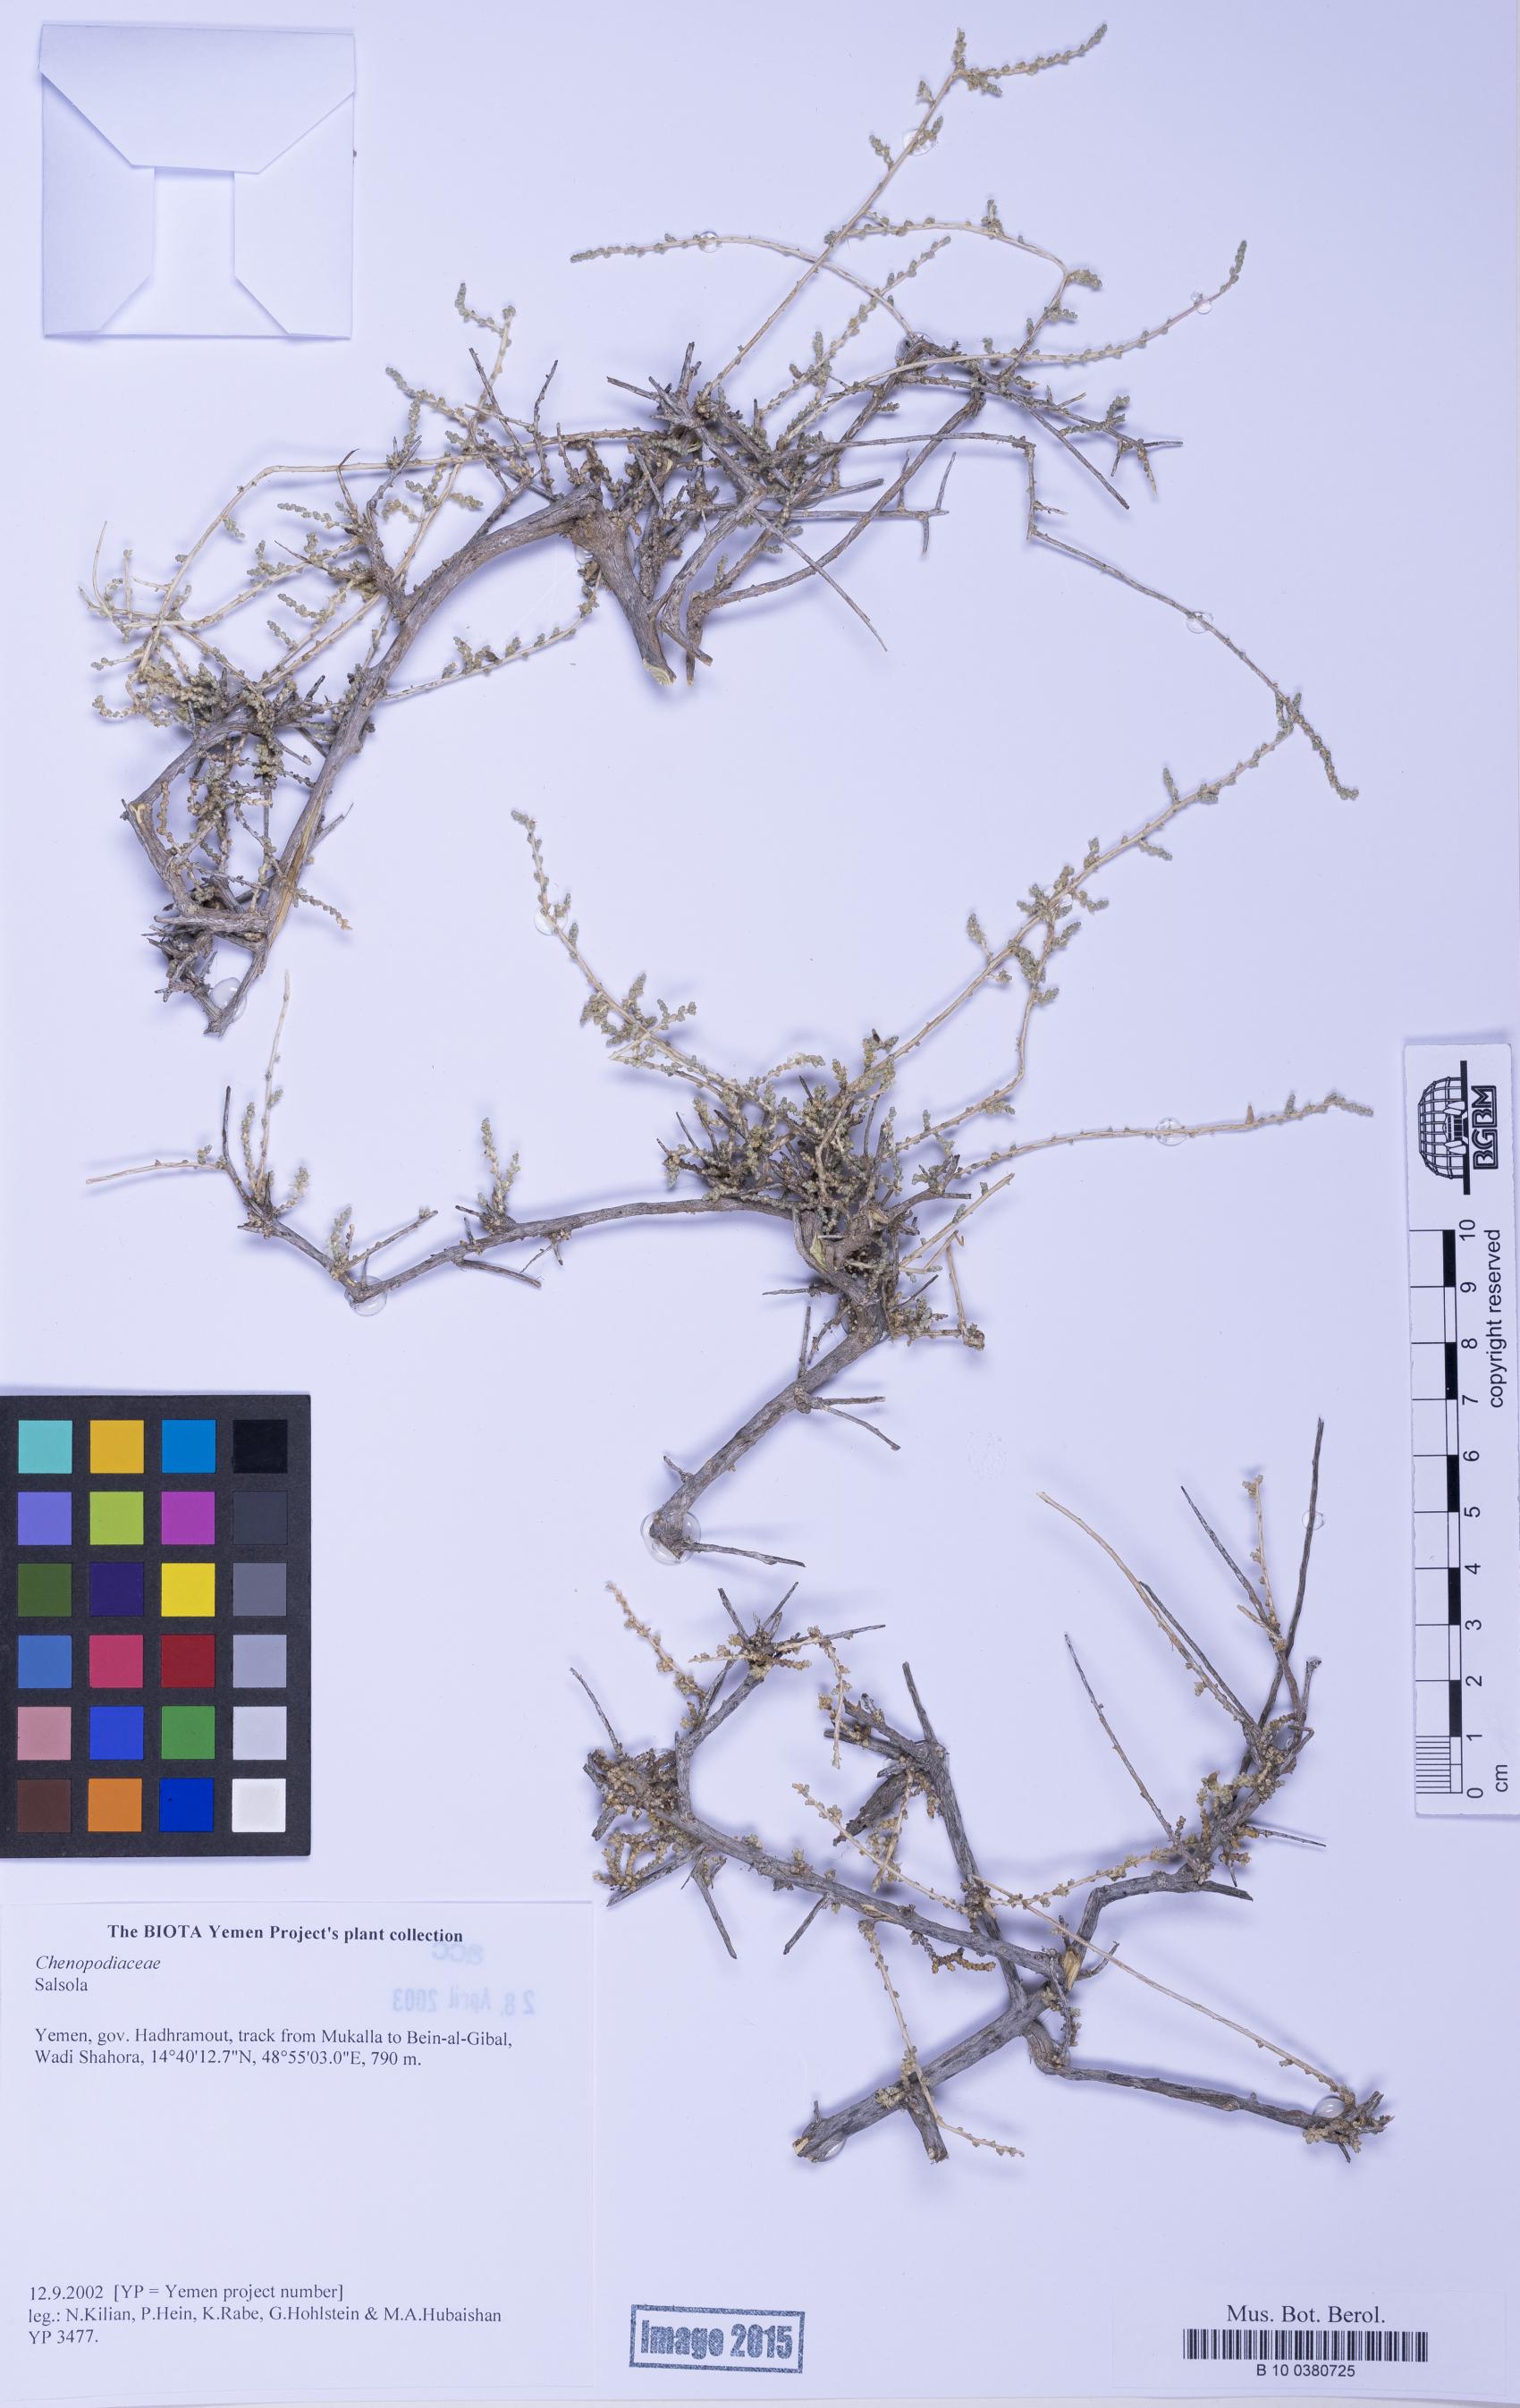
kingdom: Plantae
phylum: Tracheophyta
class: Magnoliopsida
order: Caryophyllales
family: Amaranthaceae
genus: Salsola
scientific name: Salsola
